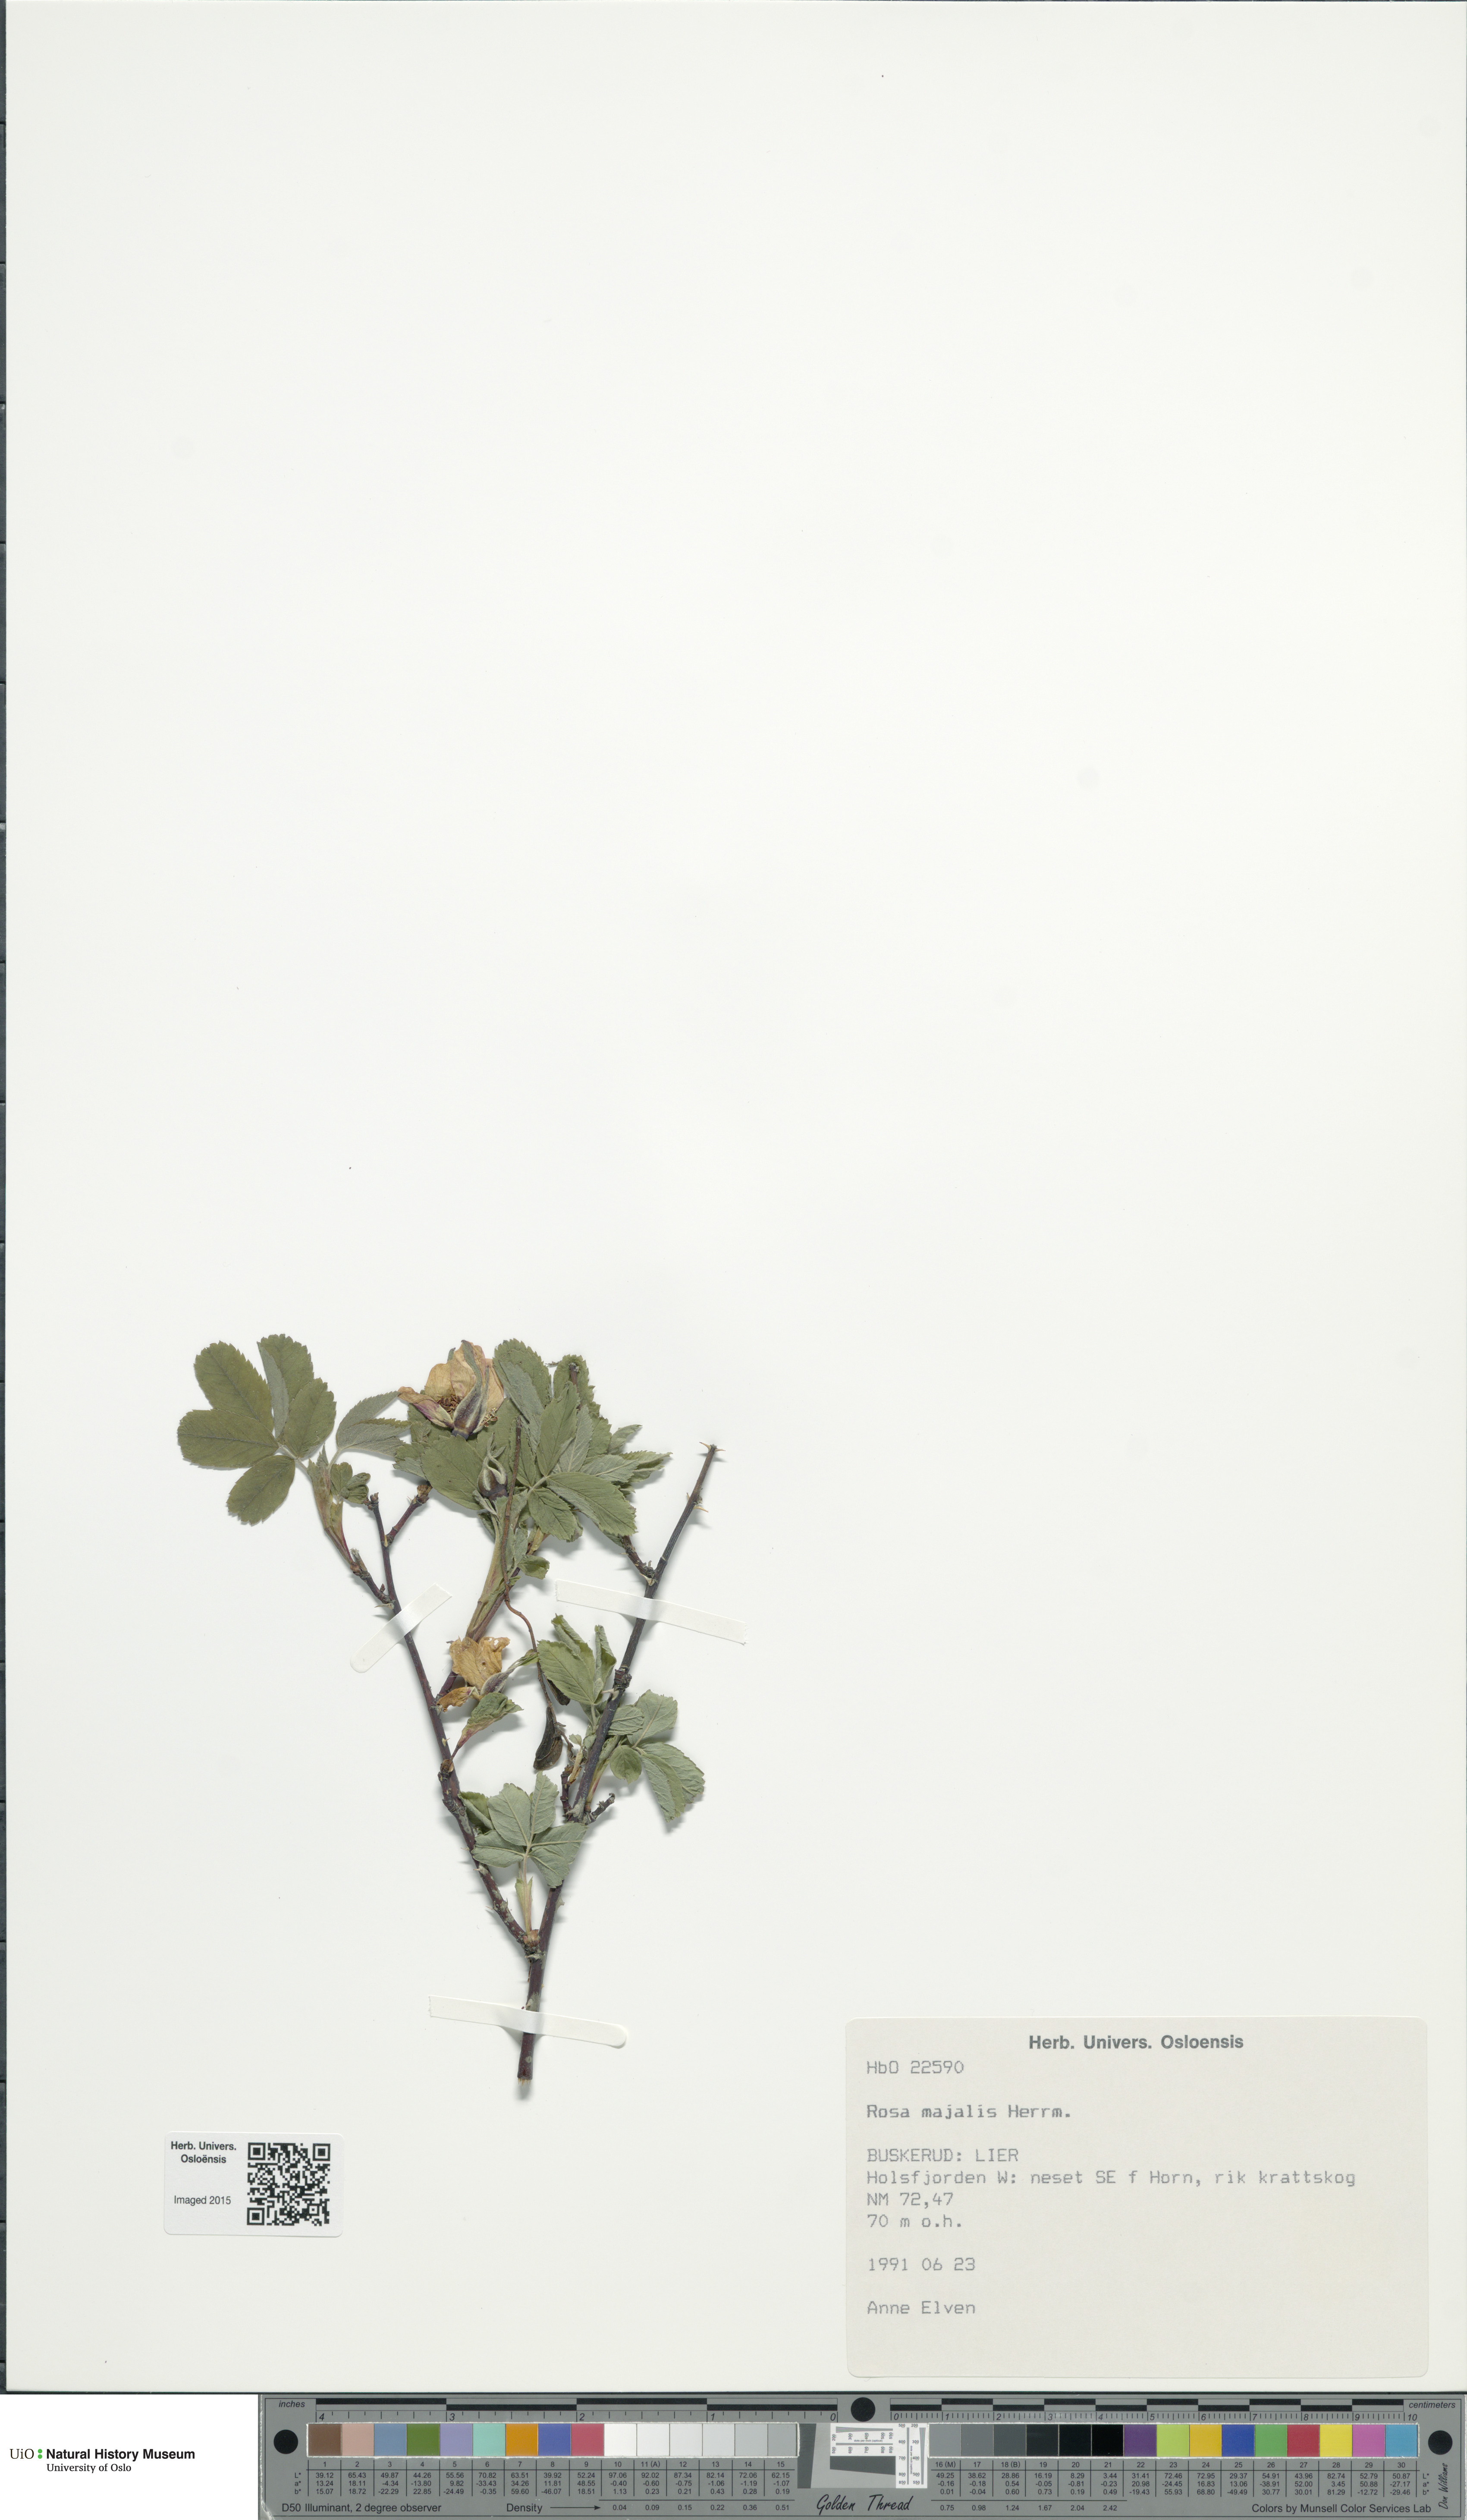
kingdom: Plantae
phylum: Tracheophyta
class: Magnoliopsida
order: Rosales
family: Rosaceae
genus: Rosa
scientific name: Rosa majalis
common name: Cinnamon rose
